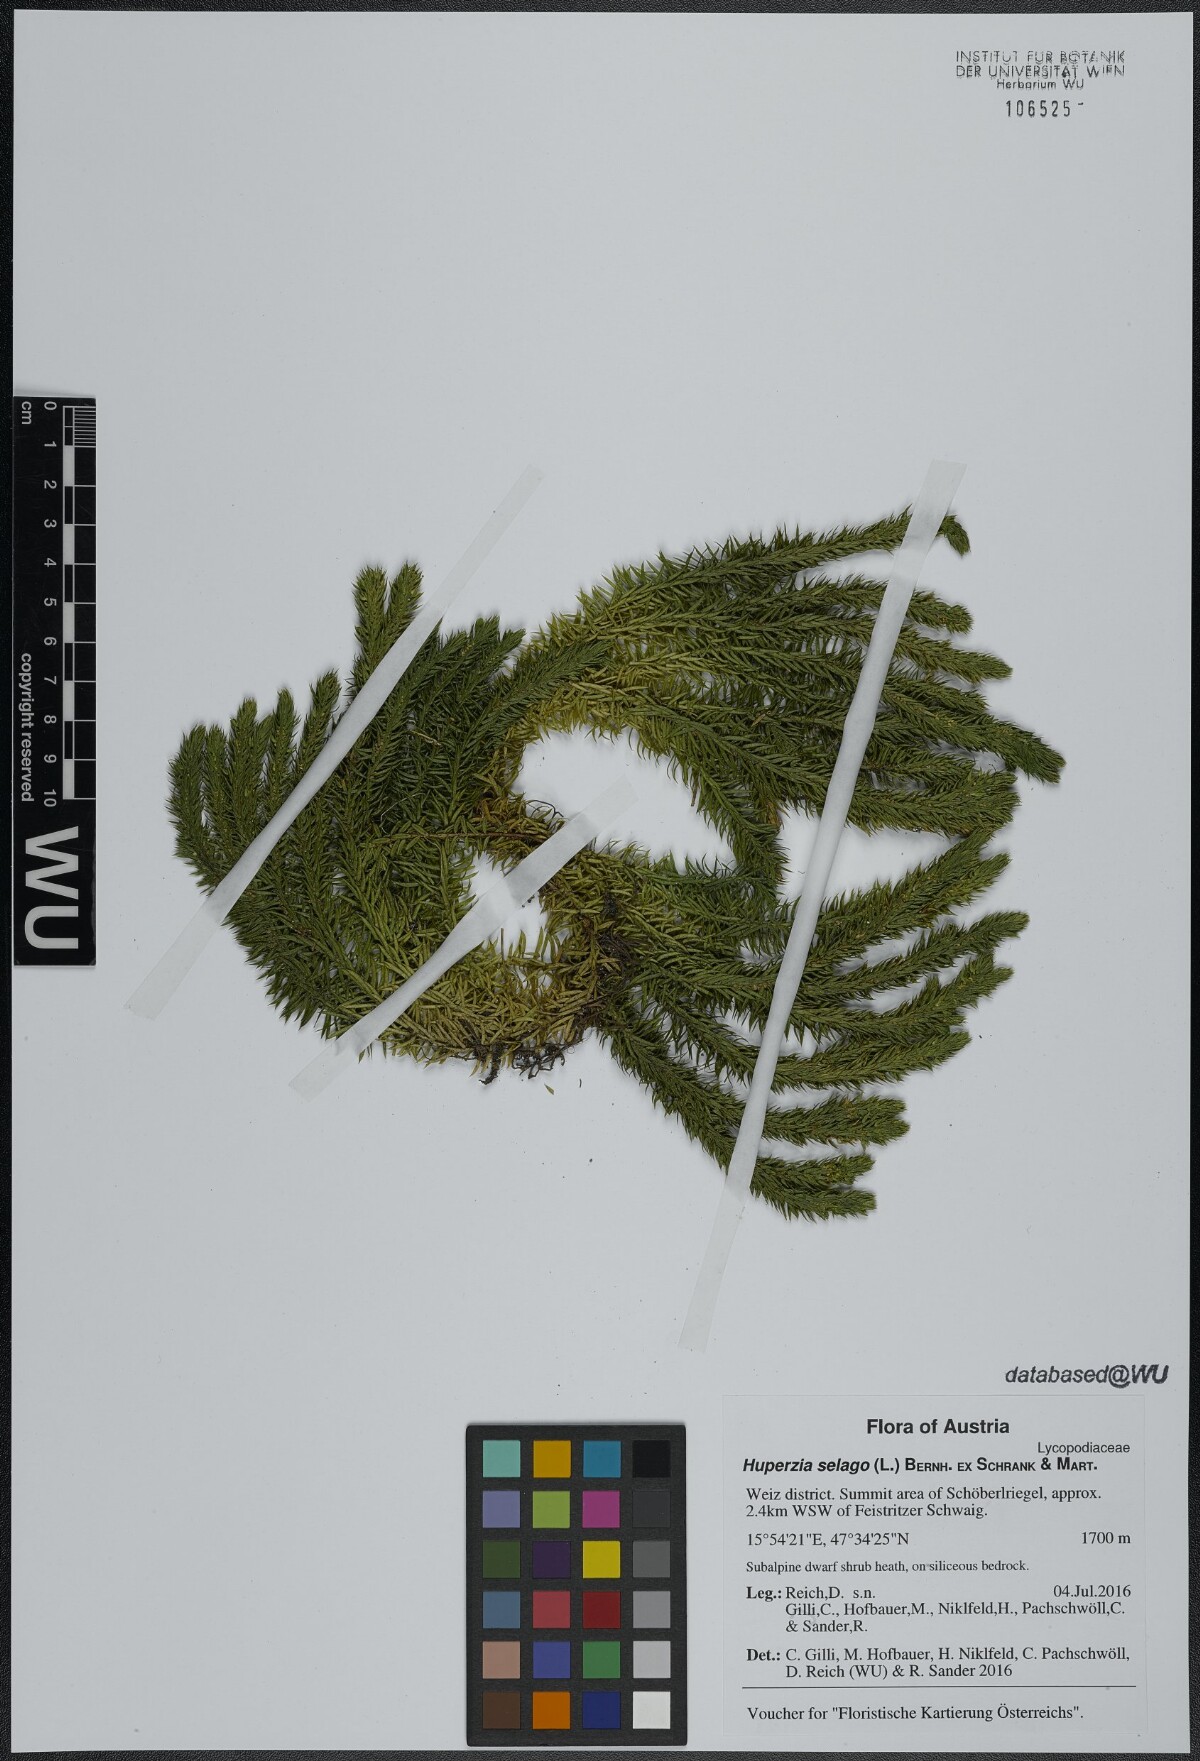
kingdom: Plantae
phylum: Tracheophyta
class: Lycopodiopsida
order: Lycopodiales
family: Lycopodiaceae
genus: Huperzia
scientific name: Huperzia selago
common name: Northern firmoss
